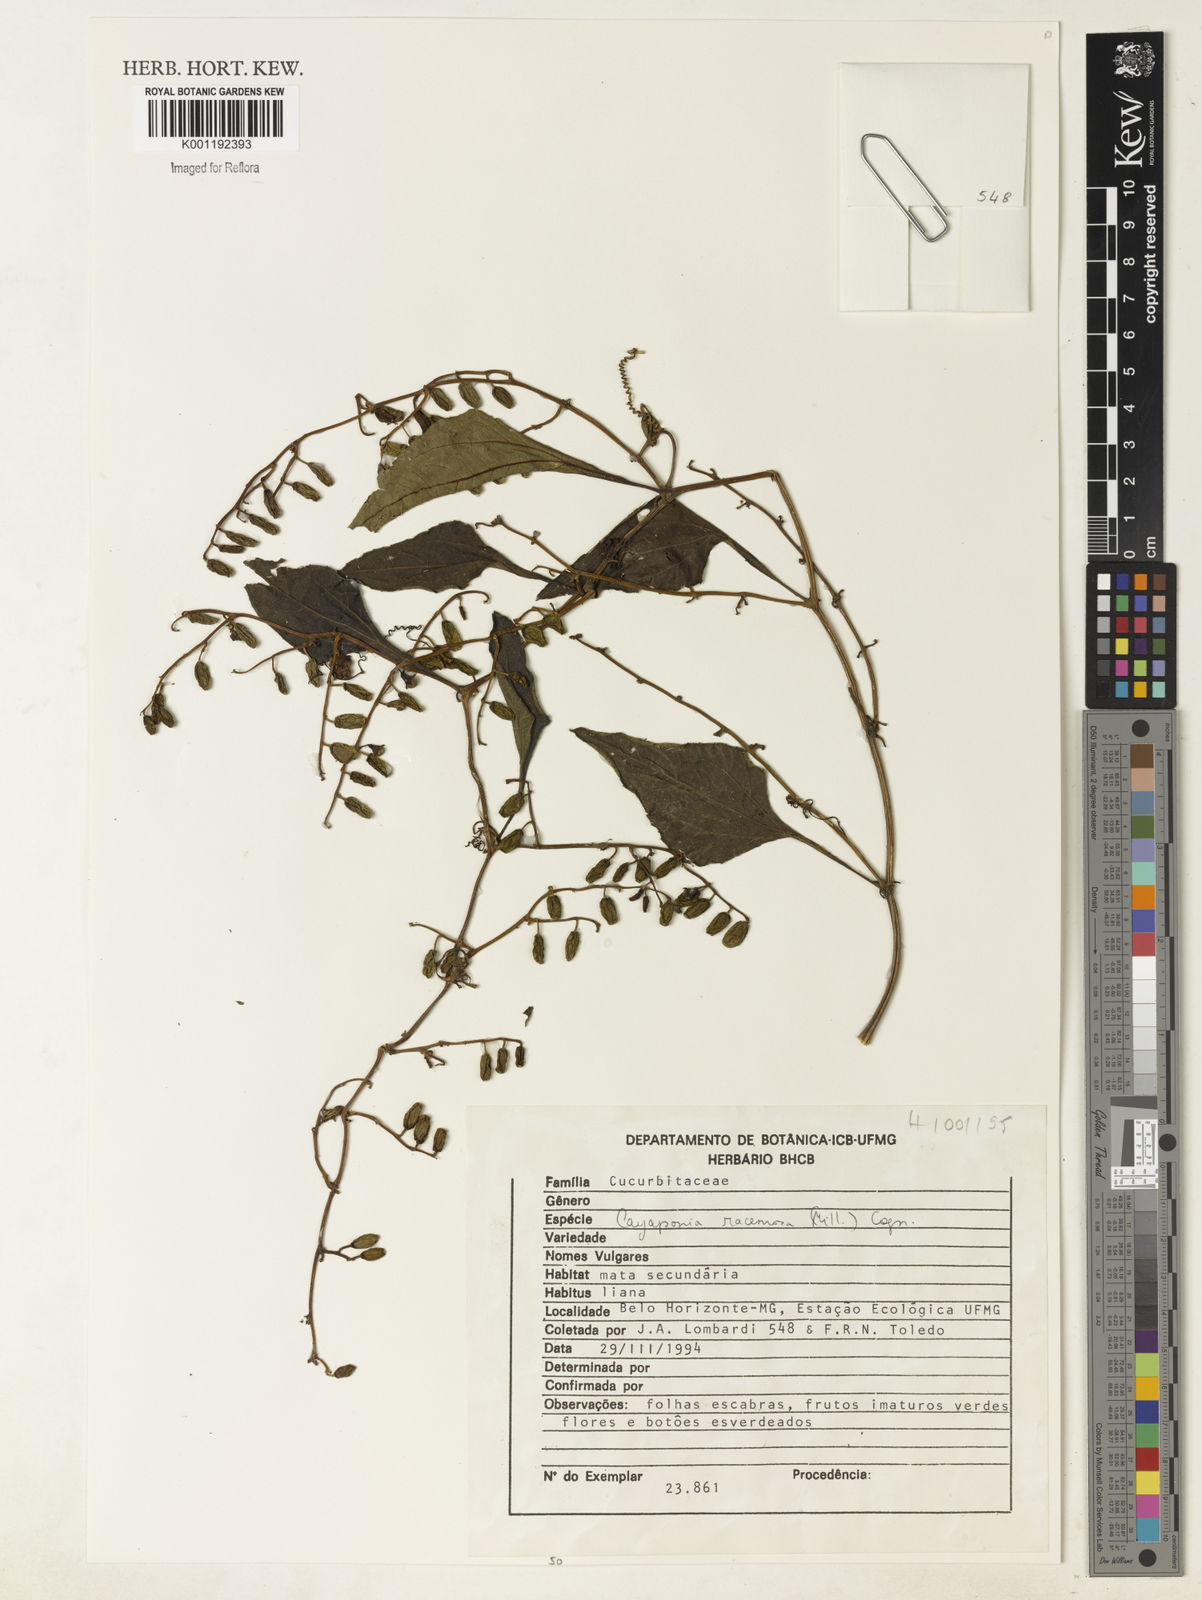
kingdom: Plantae
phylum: Tracheophyta
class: Magnoliopsida
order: Cucurbitales
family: Cucurbitaceae
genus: Cayaponia
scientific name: Cayaponia racemosa
